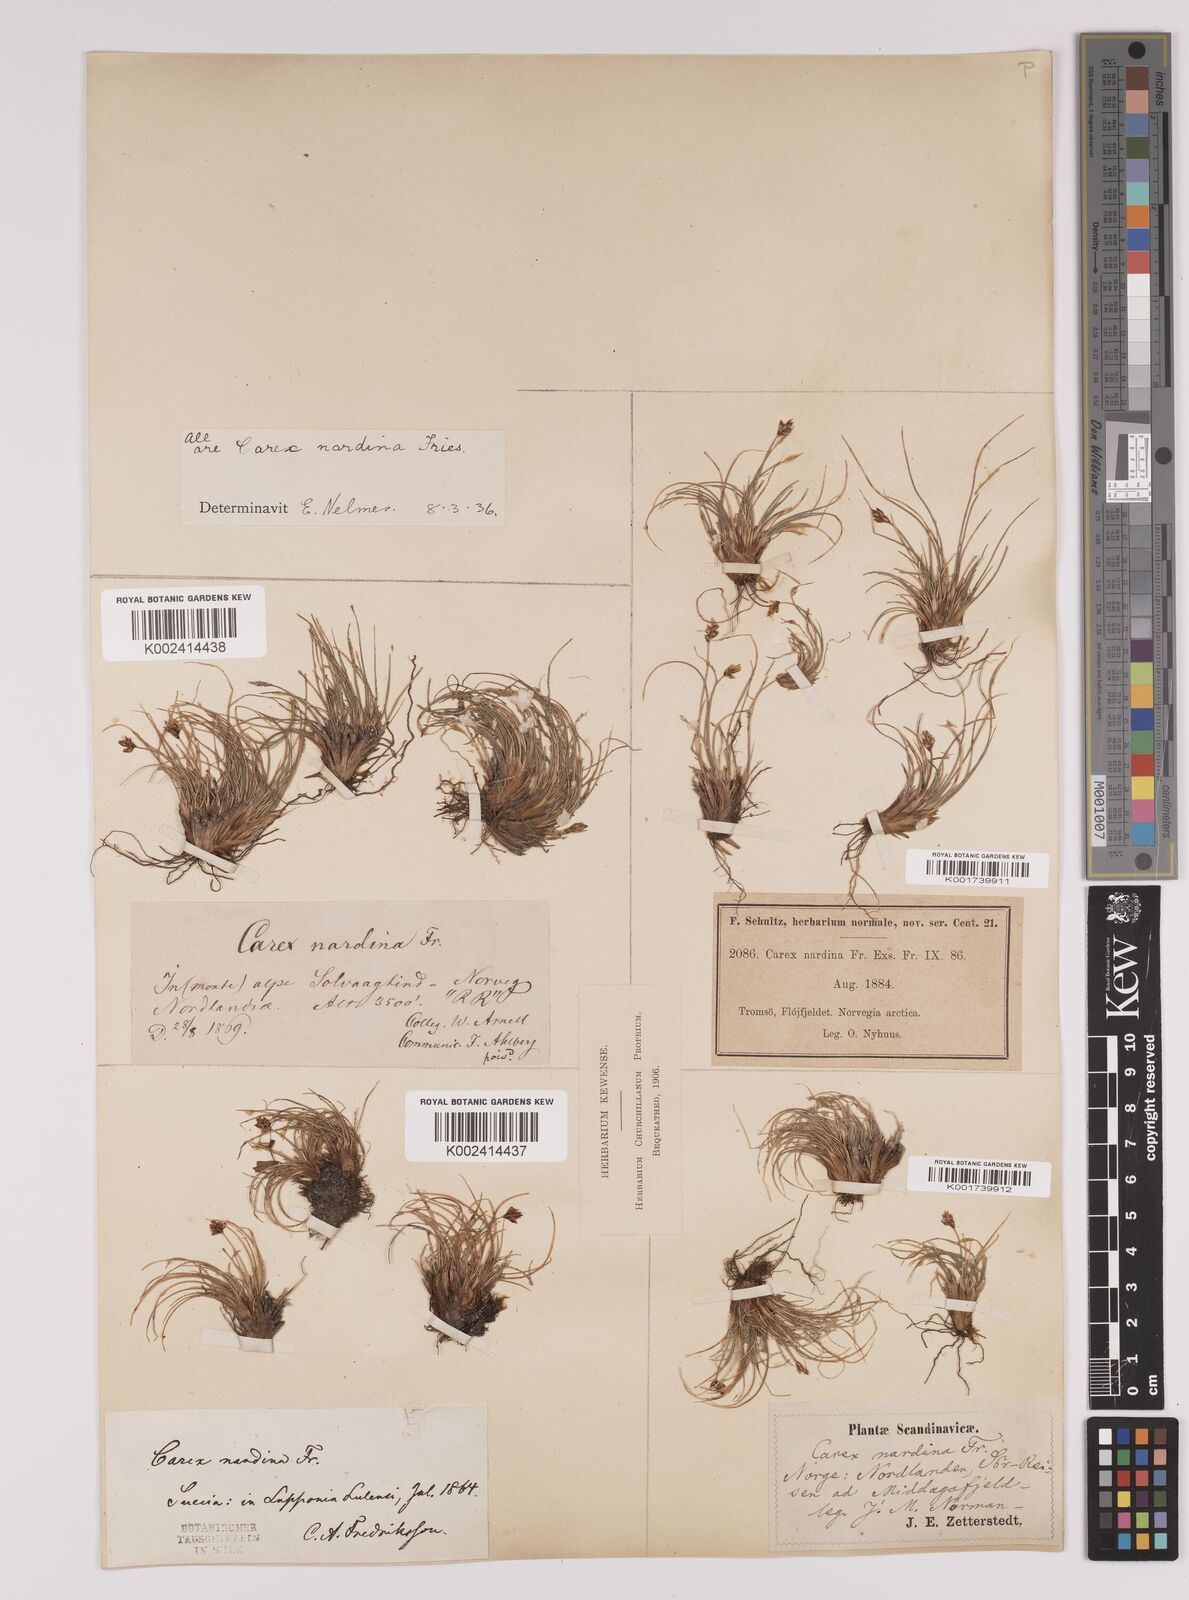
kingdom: Plantae
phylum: Tracheophyta
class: Liliopsida
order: Poales
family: Cyperaceae
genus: Carex
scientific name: Carex nardina
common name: Nard sedge
